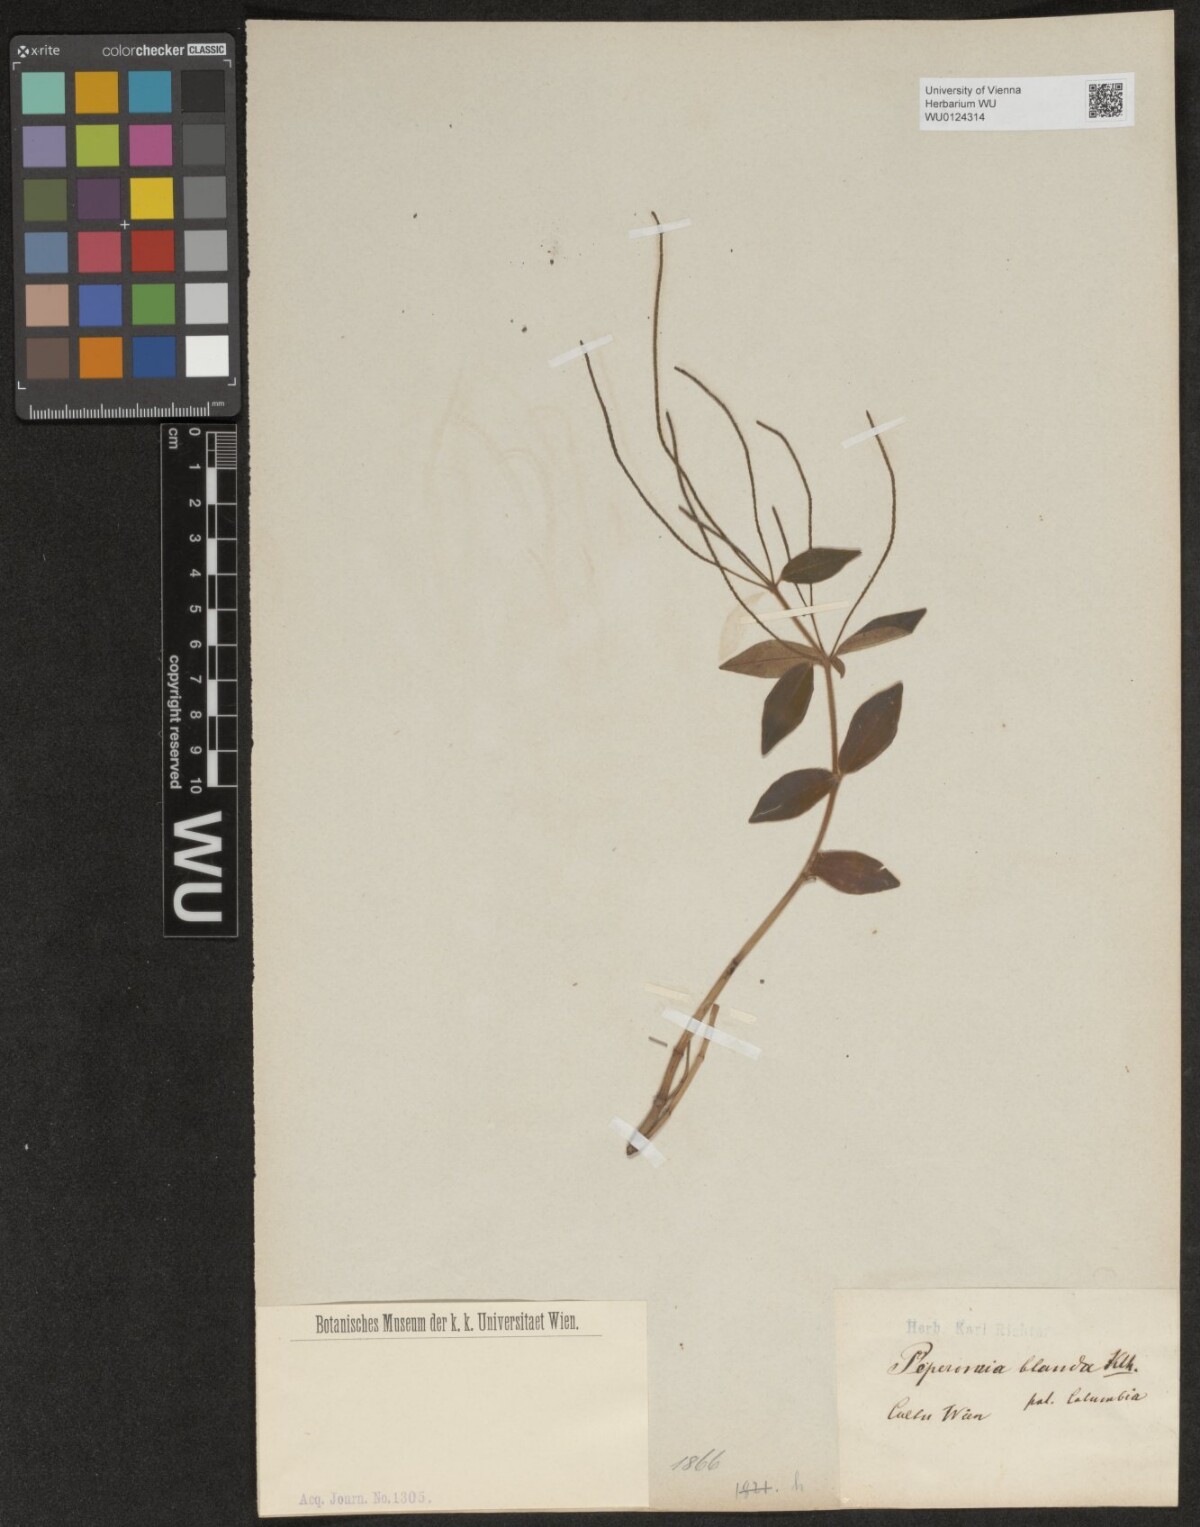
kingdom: Plantae
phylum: Tracheophyta
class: Magnoliopsida
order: Piperales
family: Piperaceae
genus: Peperomia
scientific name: Peperomia blanda
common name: Arid-land peperomia
